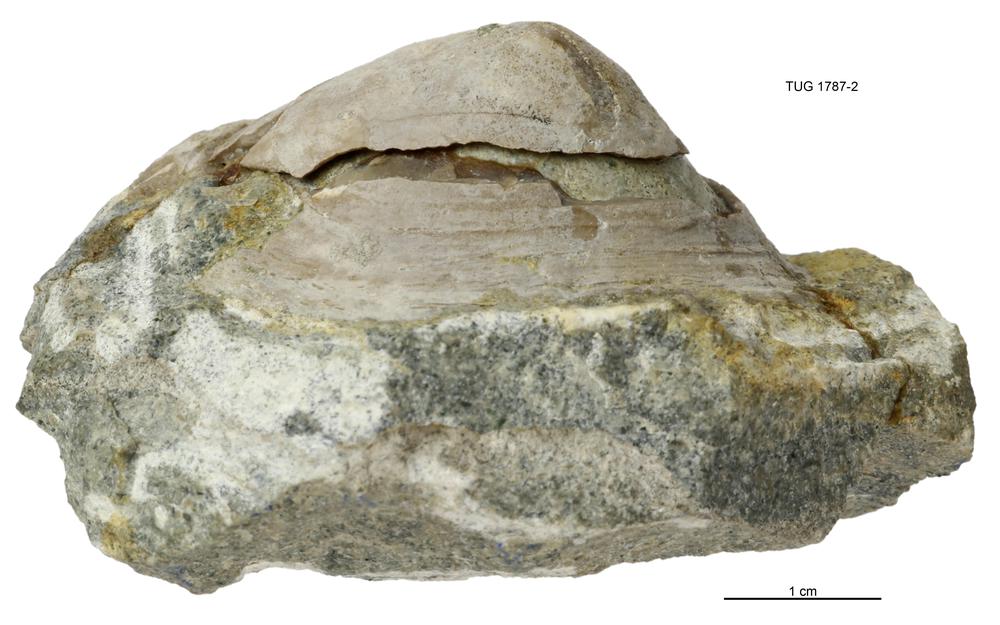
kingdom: Animalia
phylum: Mollusca
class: Monoplacophora
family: Metoptomatidae
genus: Metoptoma
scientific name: Metoptoma
